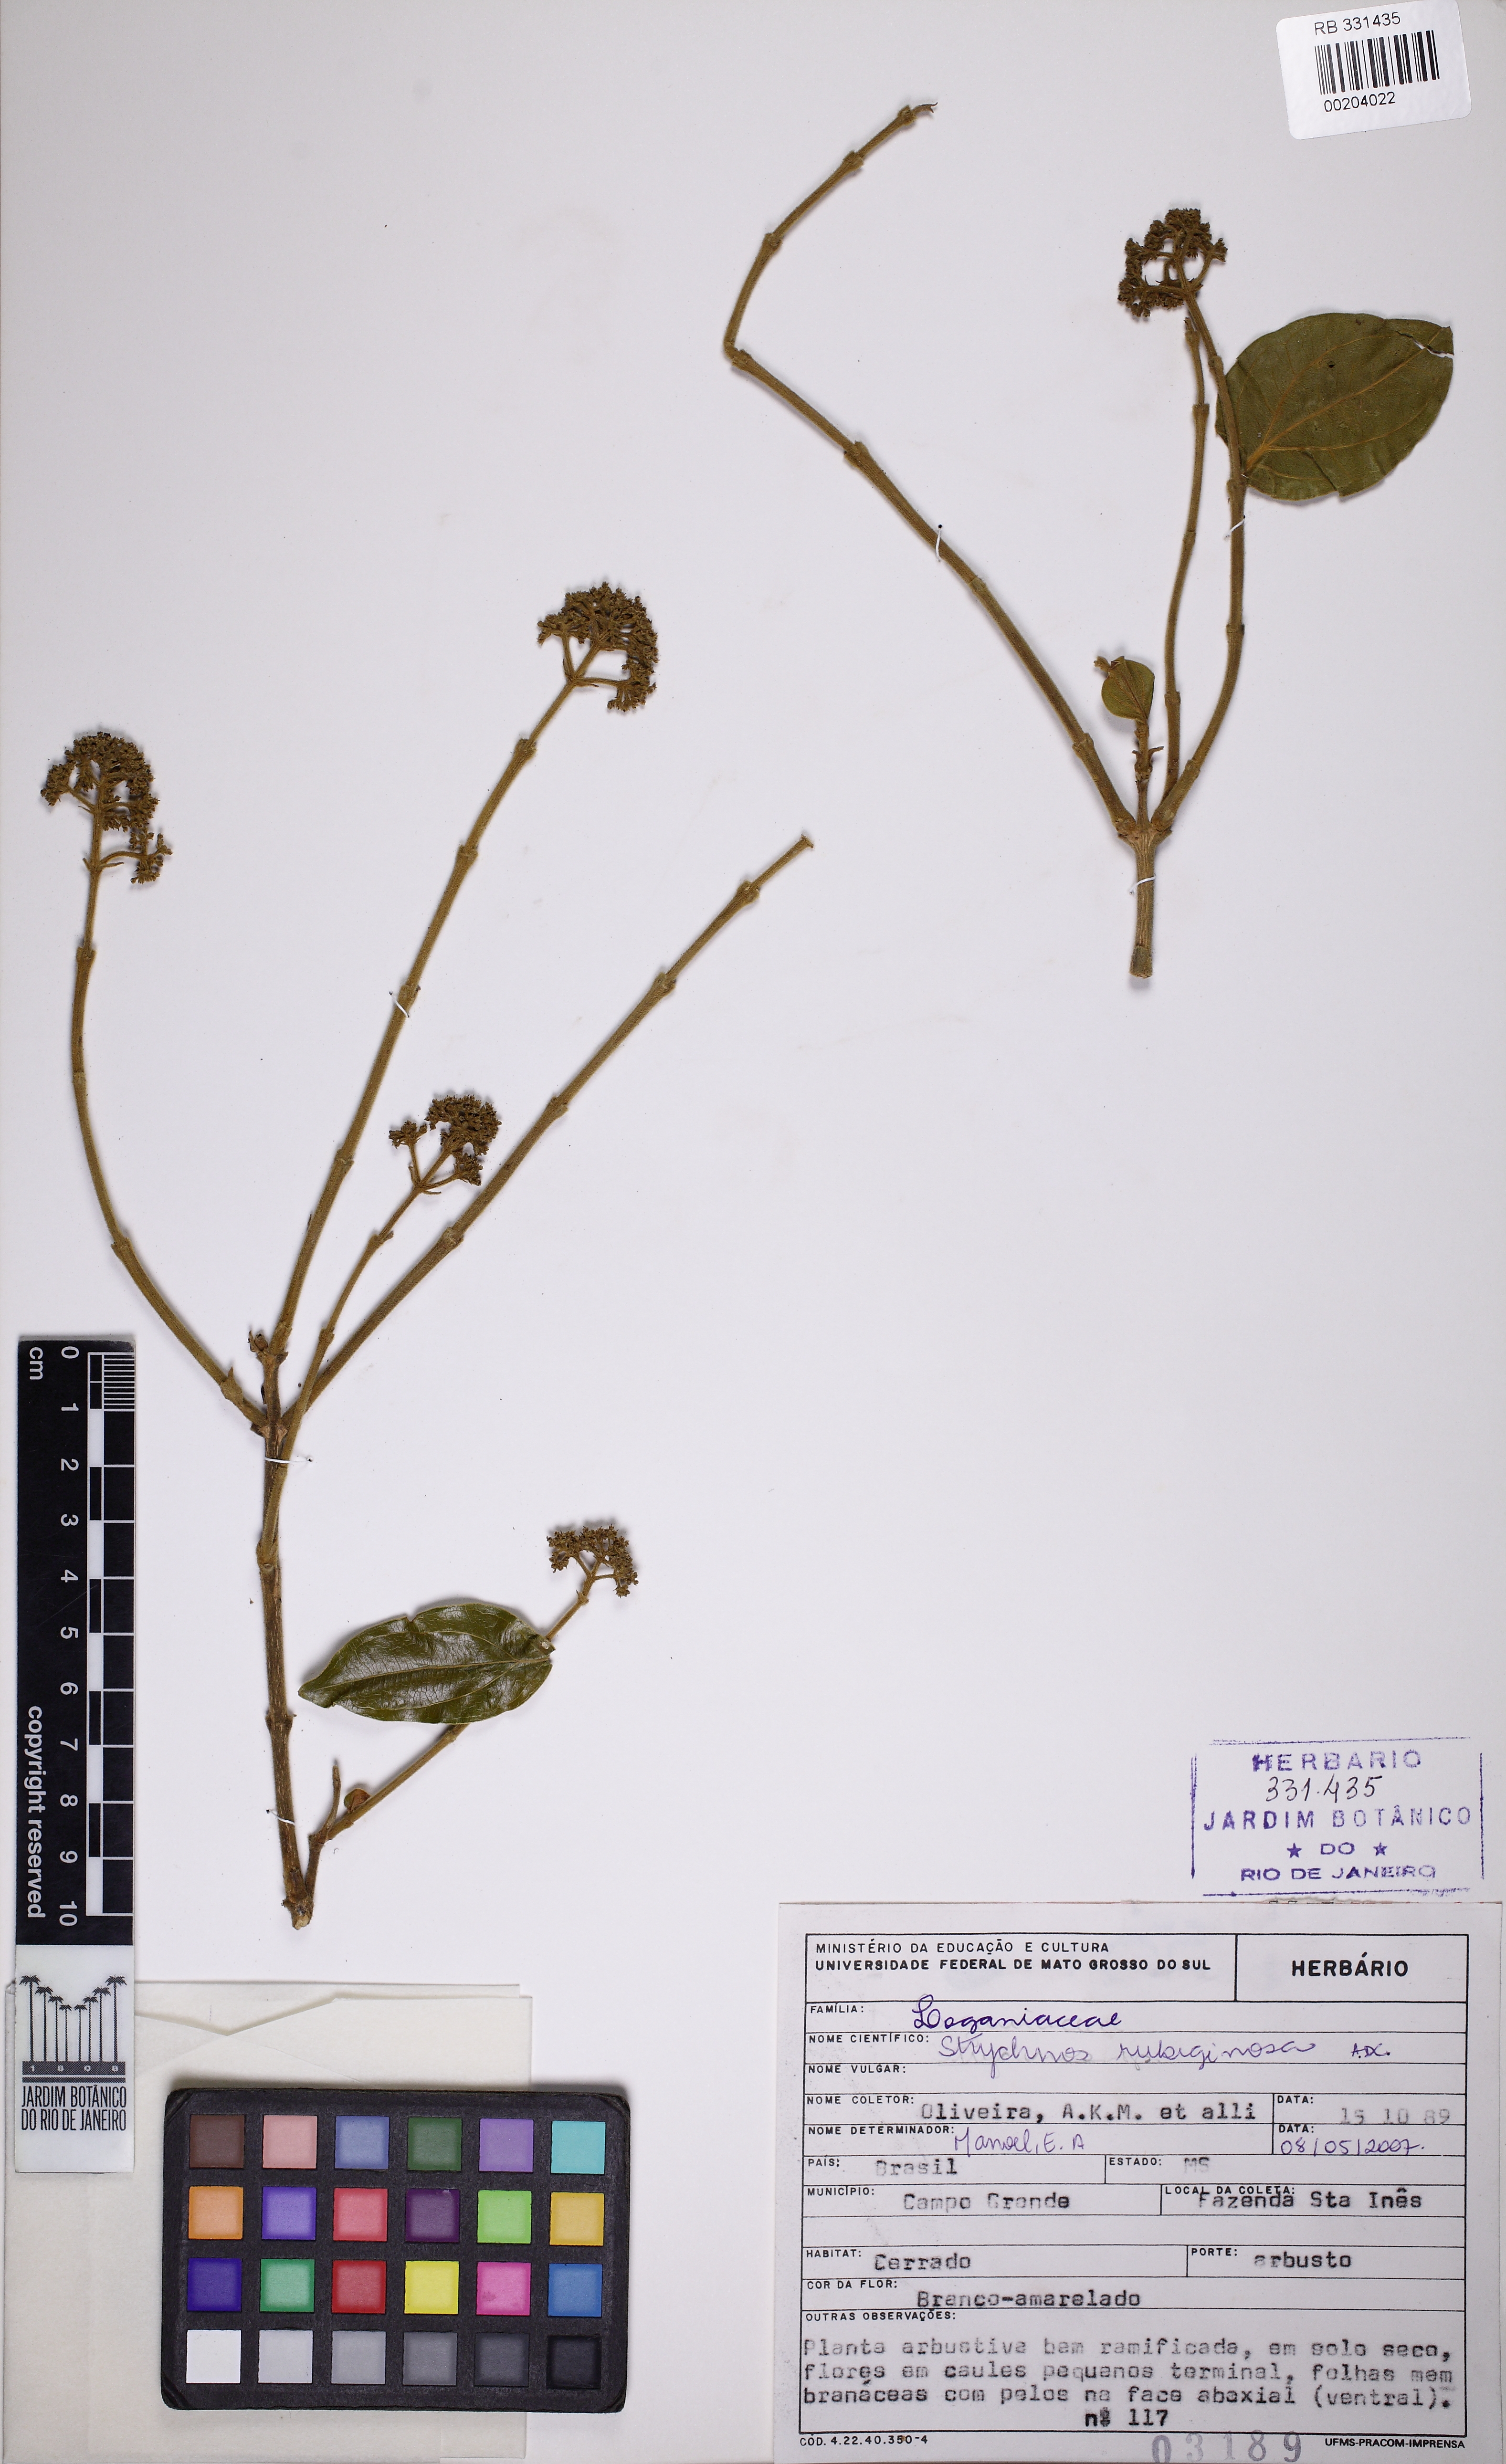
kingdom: Plantae
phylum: Tracheophyta
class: Magnoliopsida
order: Gentianales
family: Loganiaceae
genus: Strychnos
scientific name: Strychnos rubiginosa
